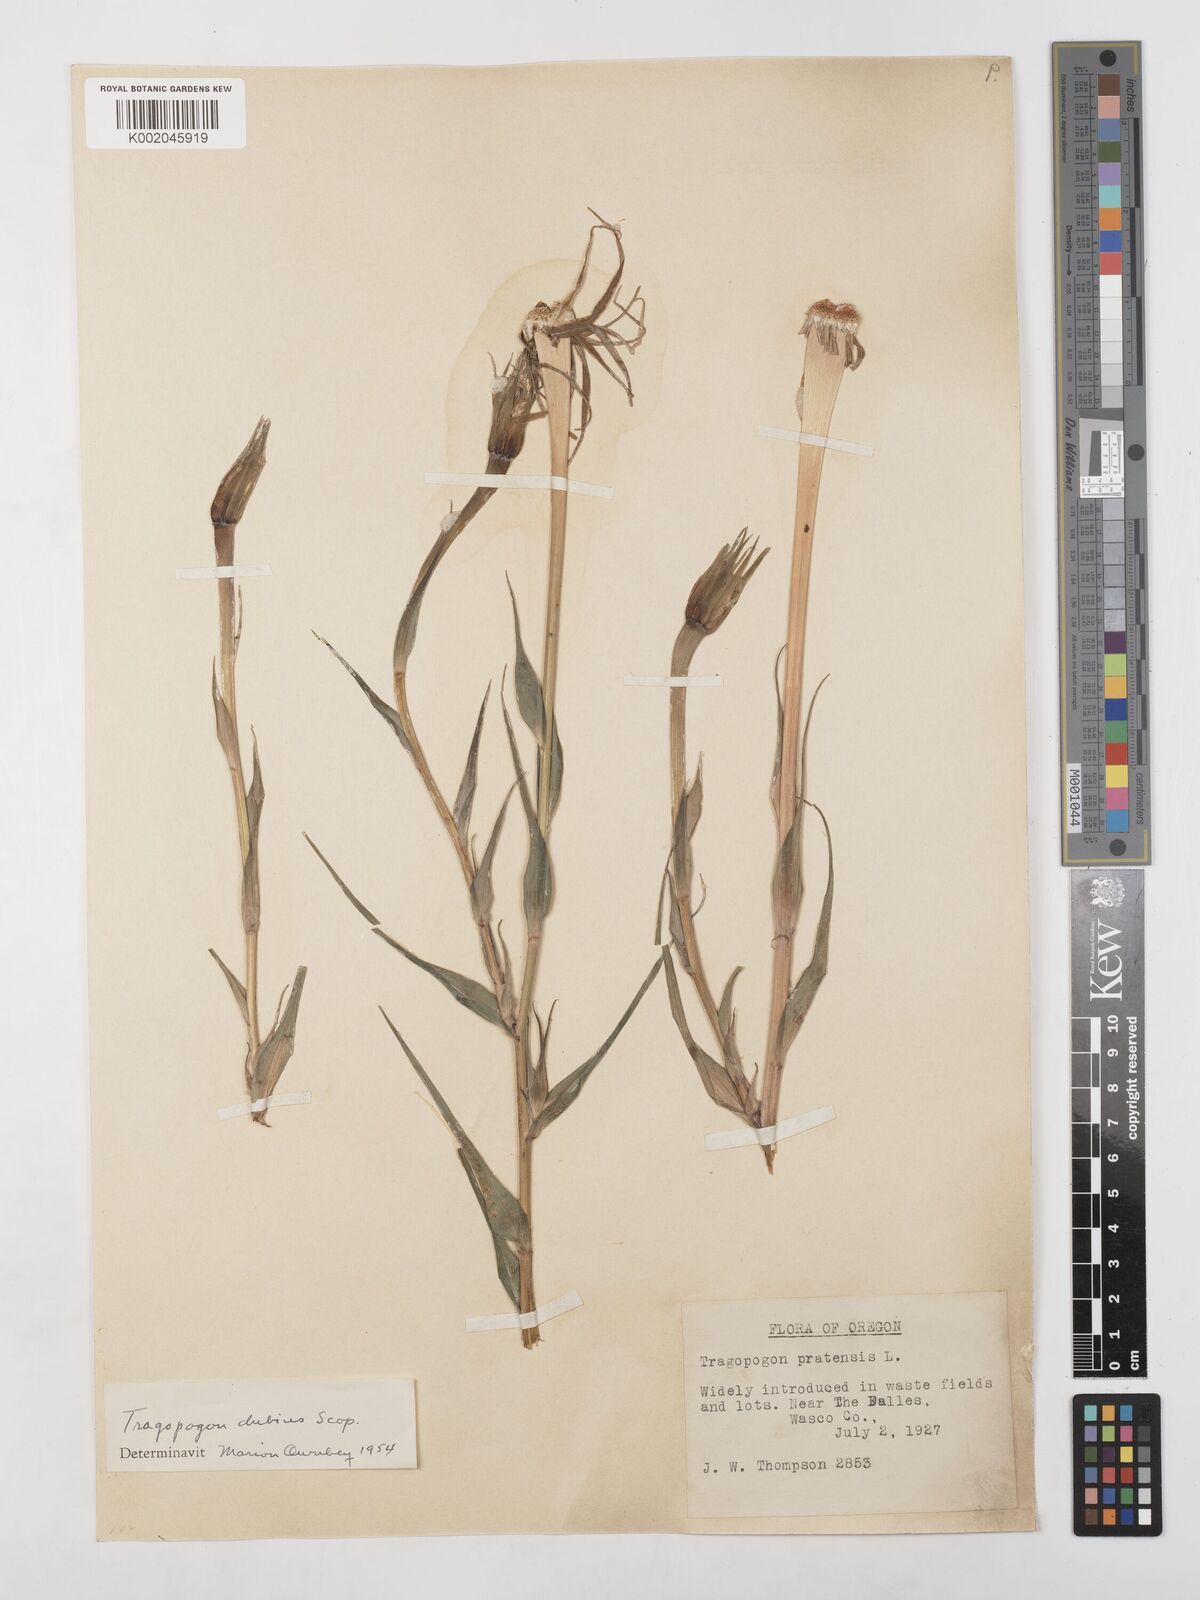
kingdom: Plantae
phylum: Tracheophyta
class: Magnoliopsida
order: Asterales
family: Asteraceae
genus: Tragopogon
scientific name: Tragopogon dubius
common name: Yellow salsify
